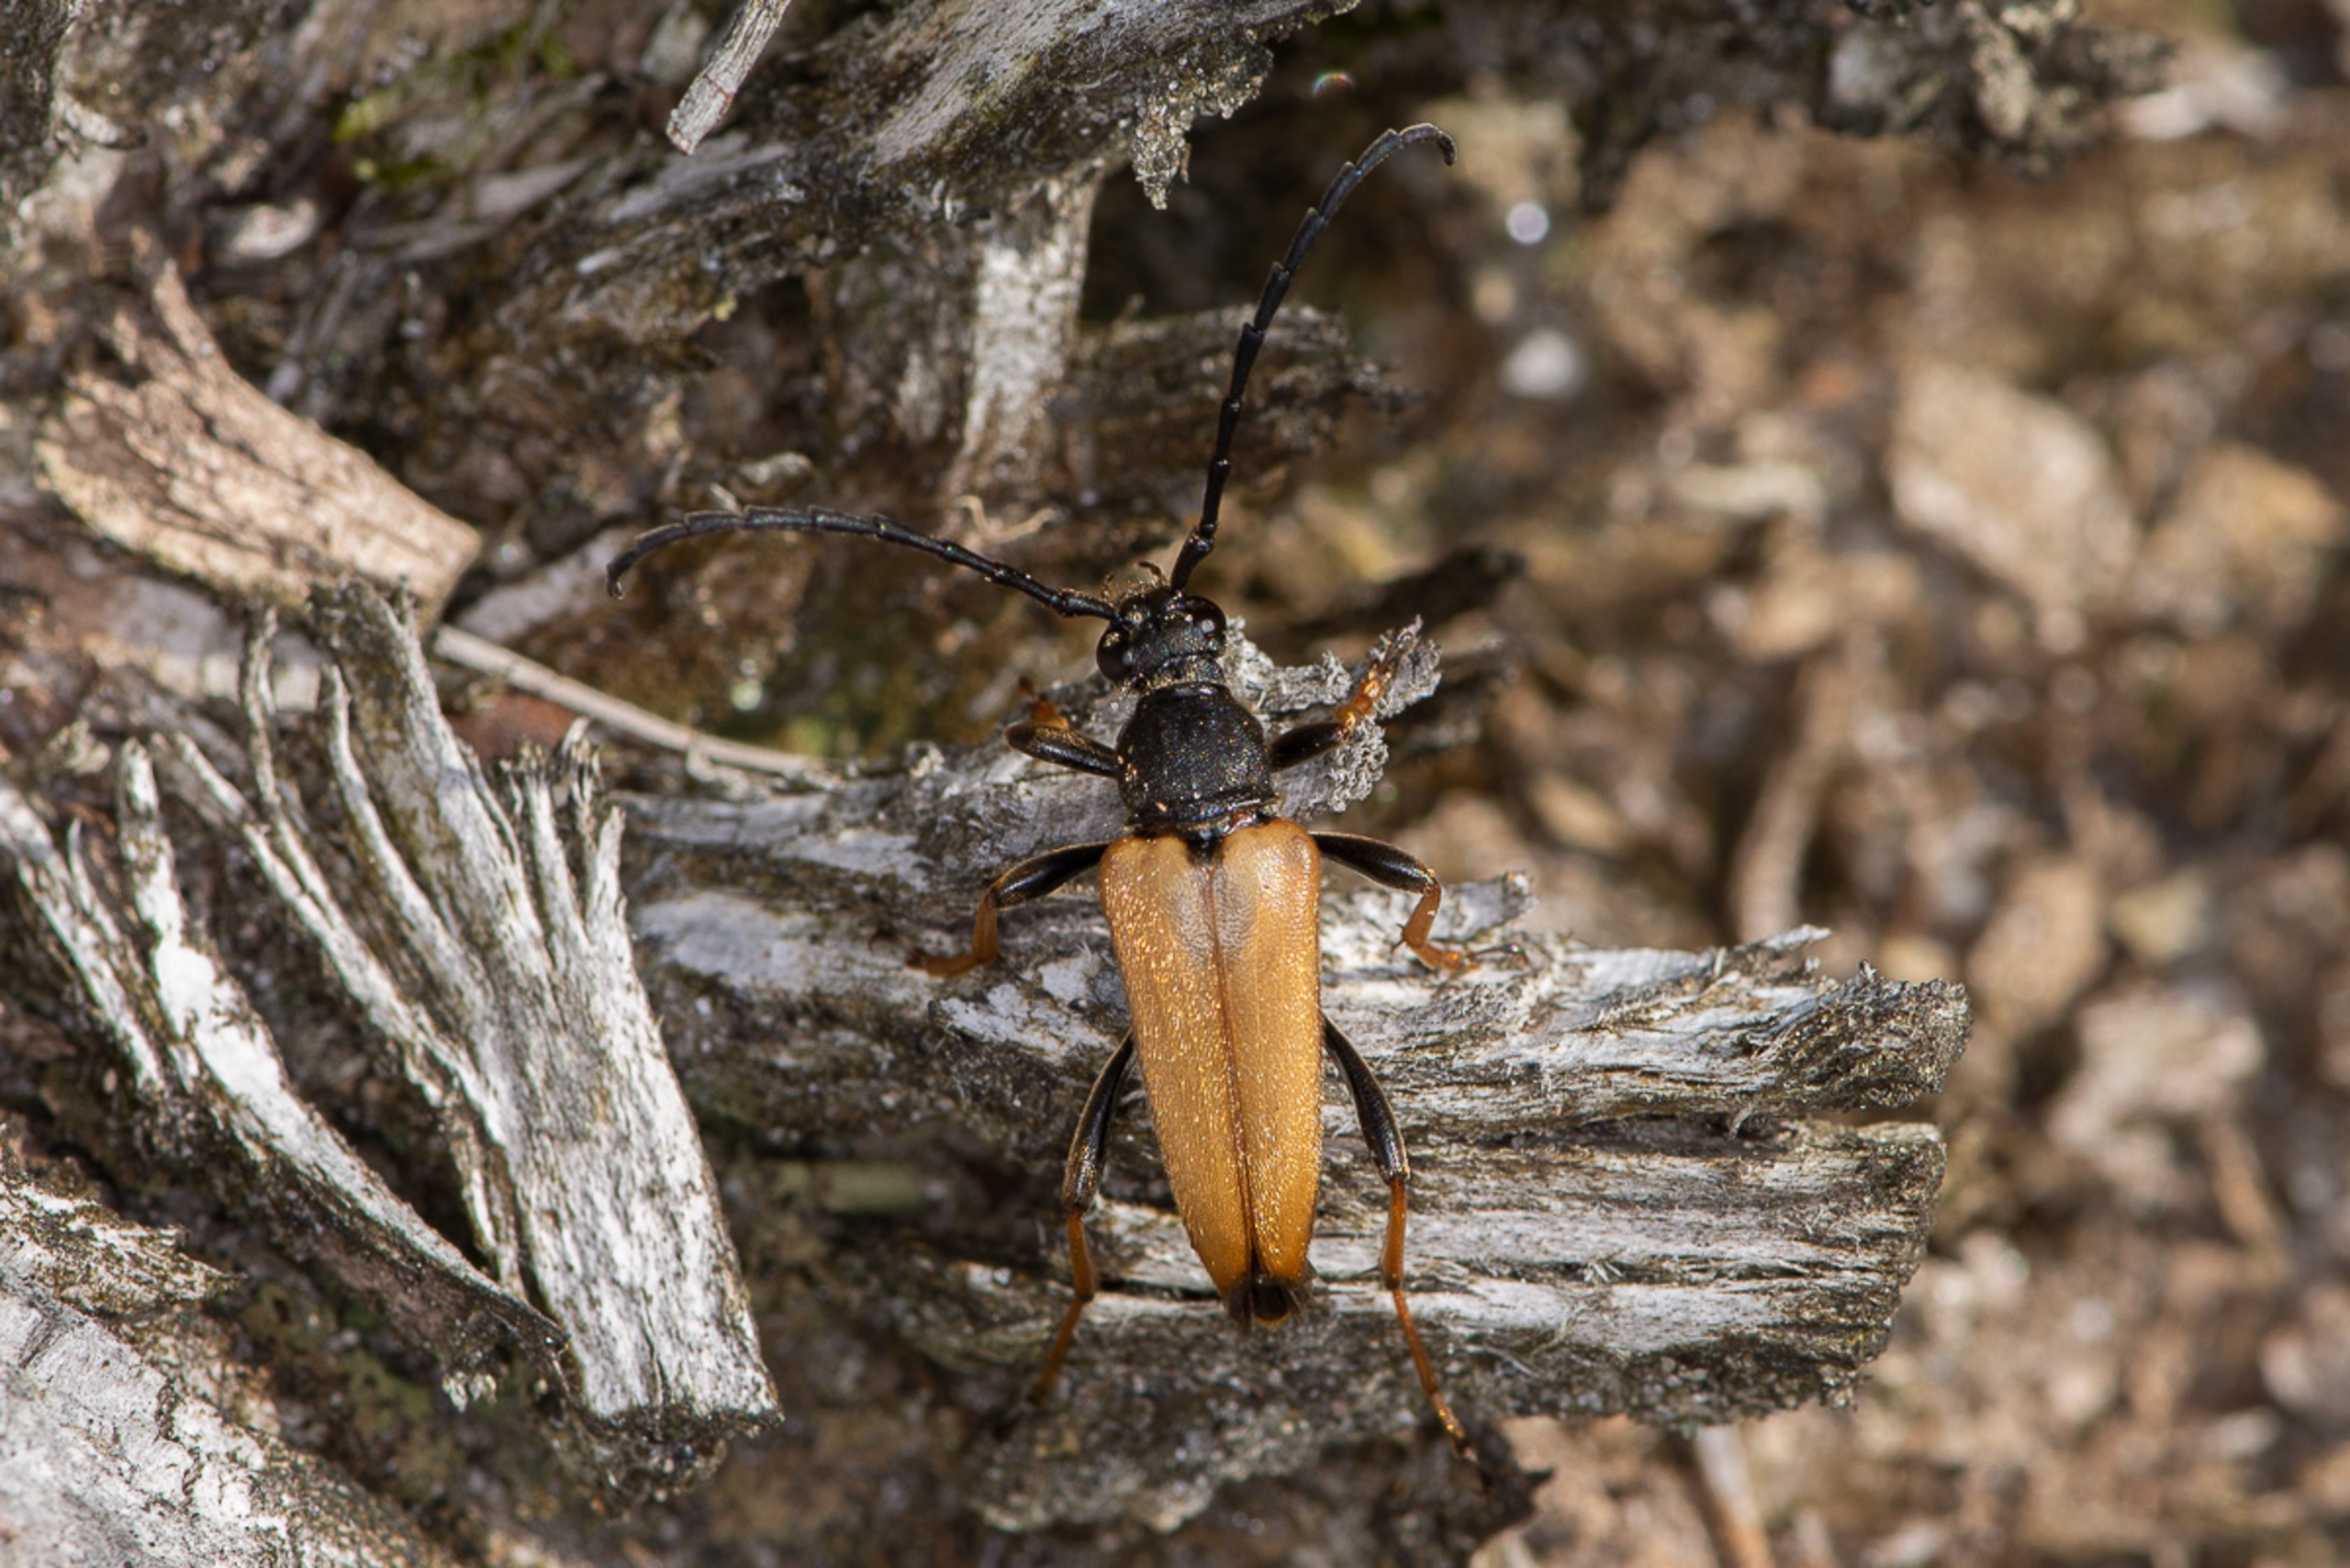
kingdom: Animalia
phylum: Arthropoda
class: Insecta
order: Coleoptera
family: Cerambycidae
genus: Stictoleptura
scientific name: Stictoleptura rubra
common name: Rød blomsterbuk
